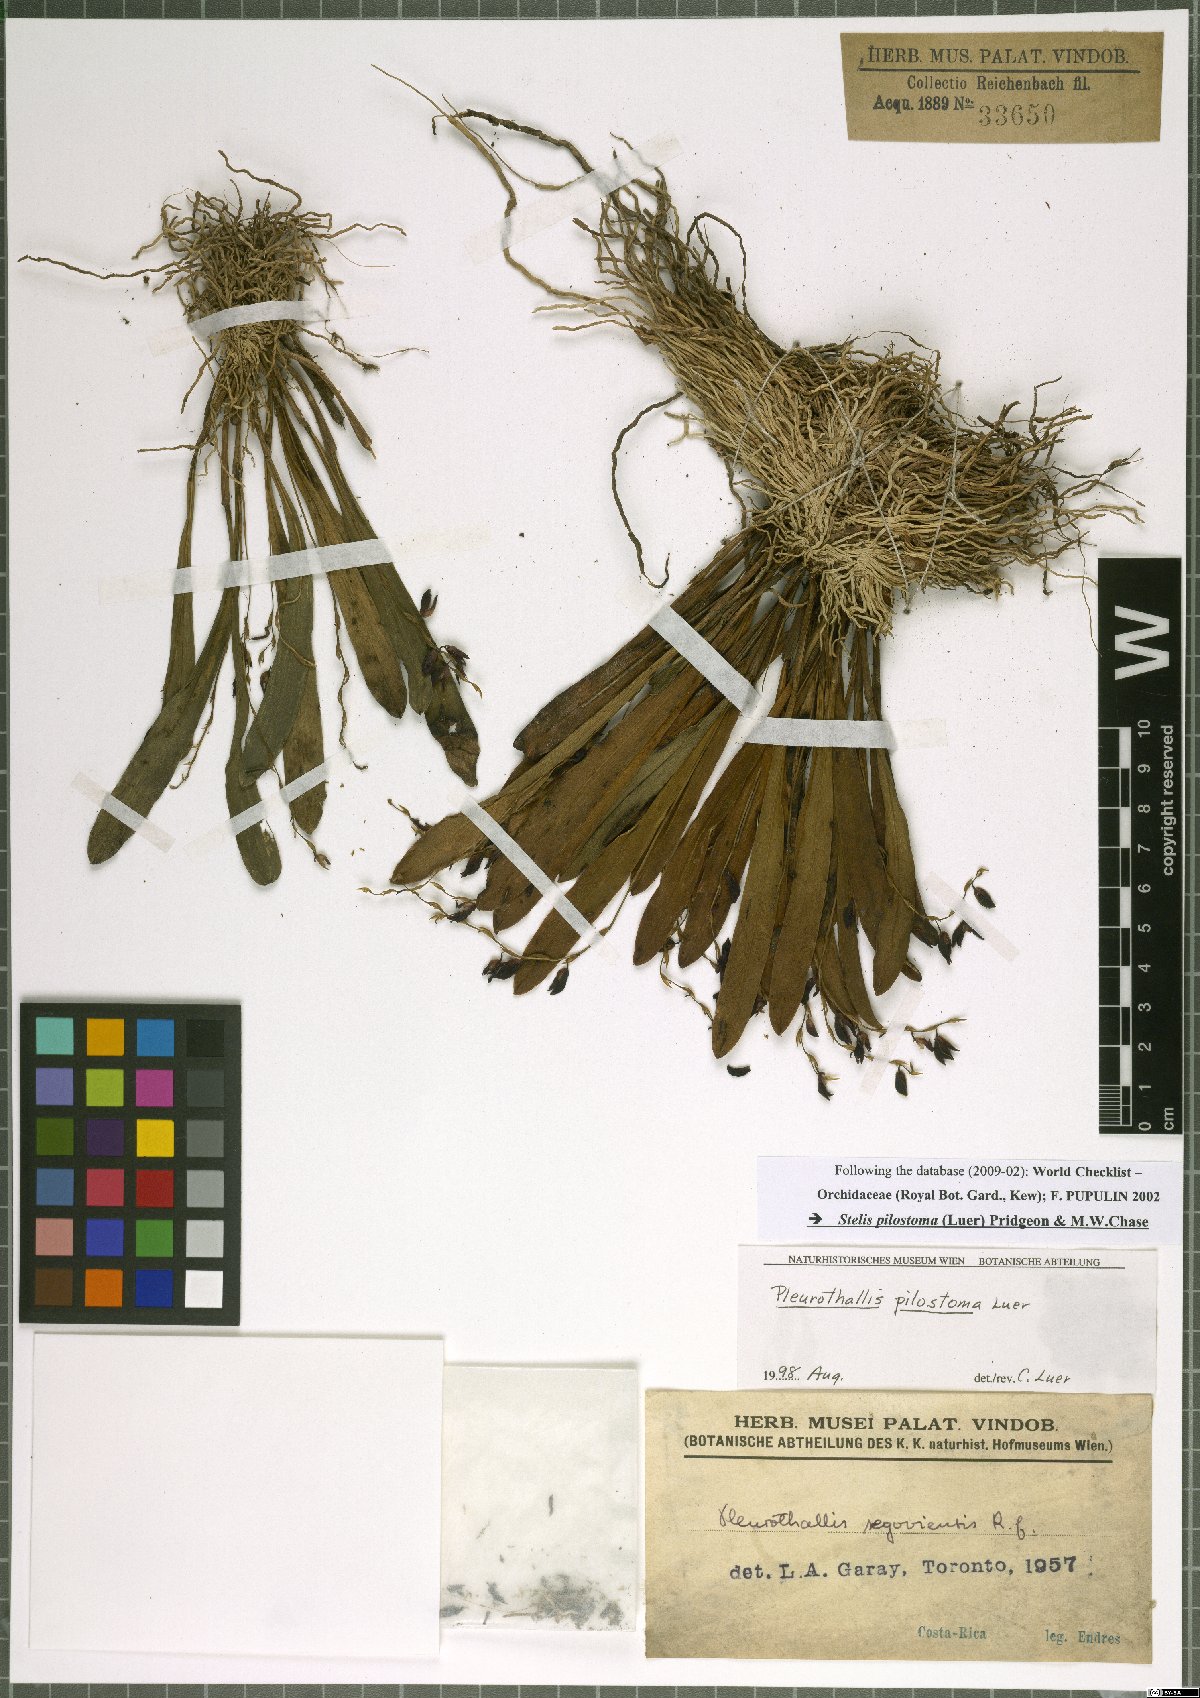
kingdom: Plantae
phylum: Tracheophyta
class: Liliopsida
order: Asparagales
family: Orchidaceae
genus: Stelis
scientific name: Stelis pilostoma
